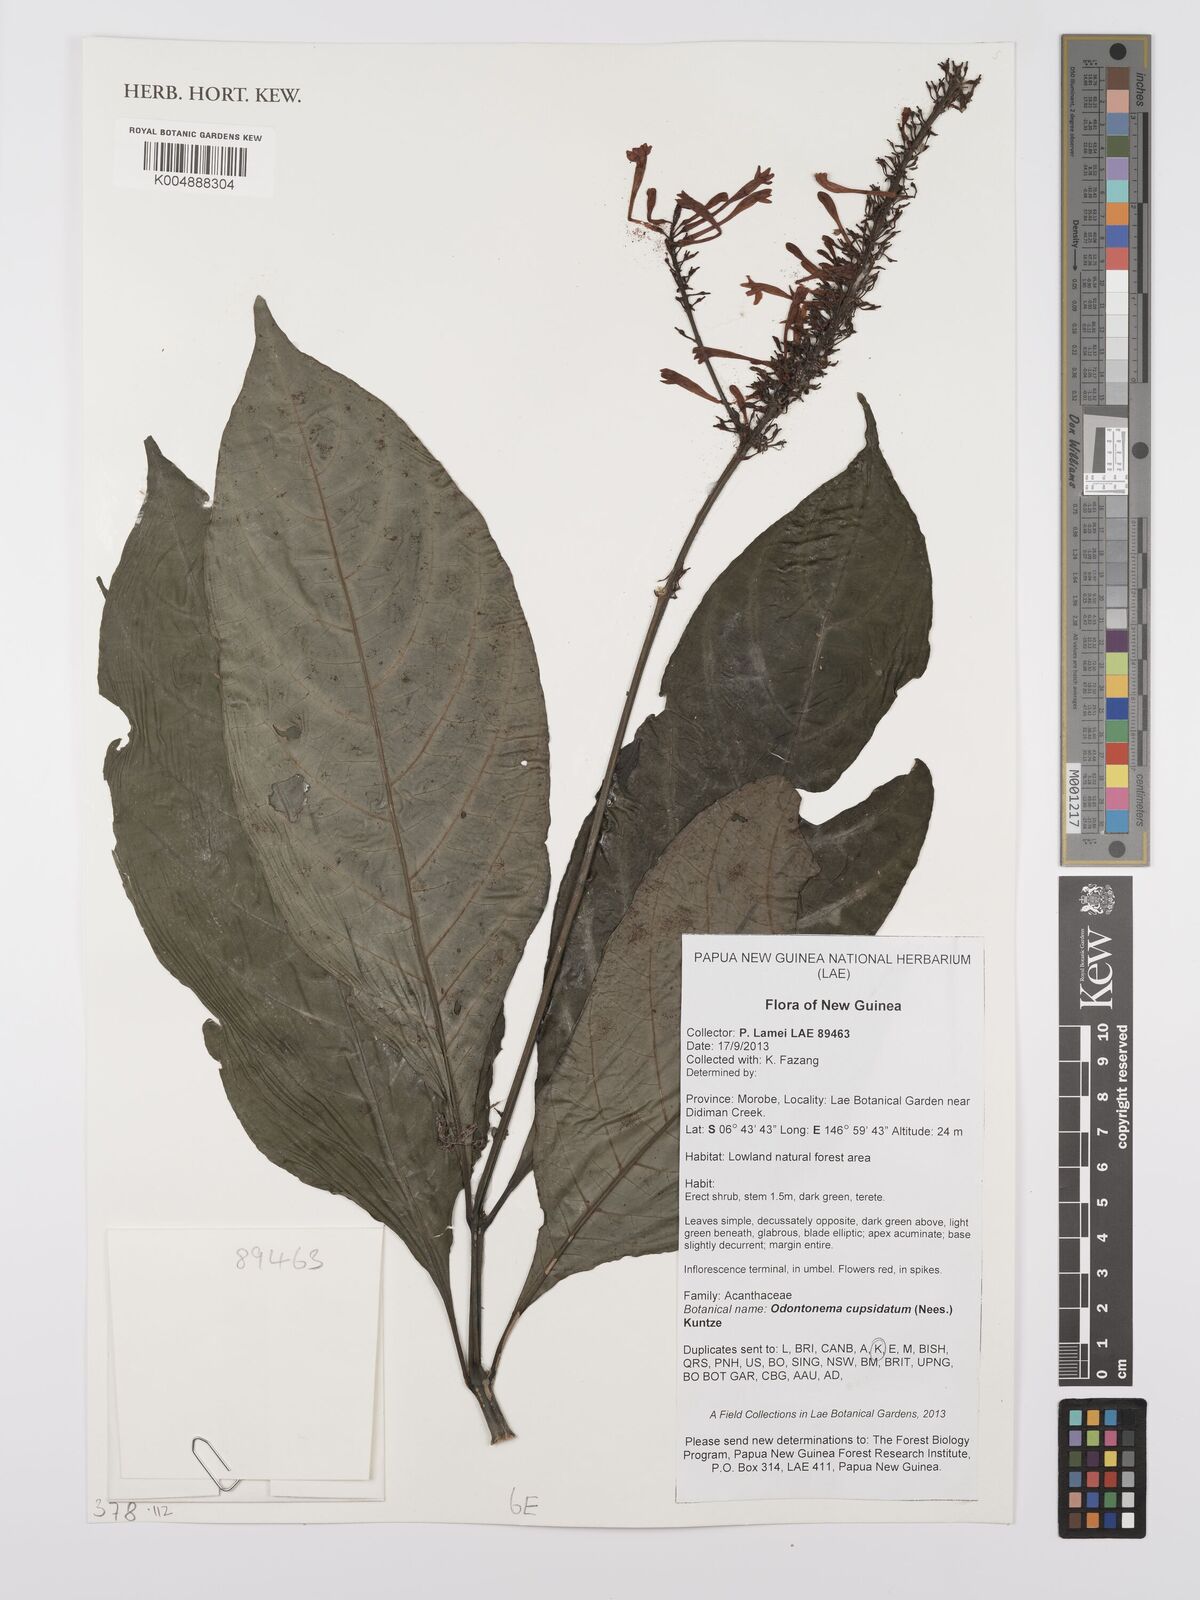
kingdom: Plantae
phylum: Tracheophyta
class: Magnoliopsida
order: Lamiales
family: Acanthaceae
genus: Odontonema
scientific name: Odontonema cuspidatum
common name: Mottled toothedthread
